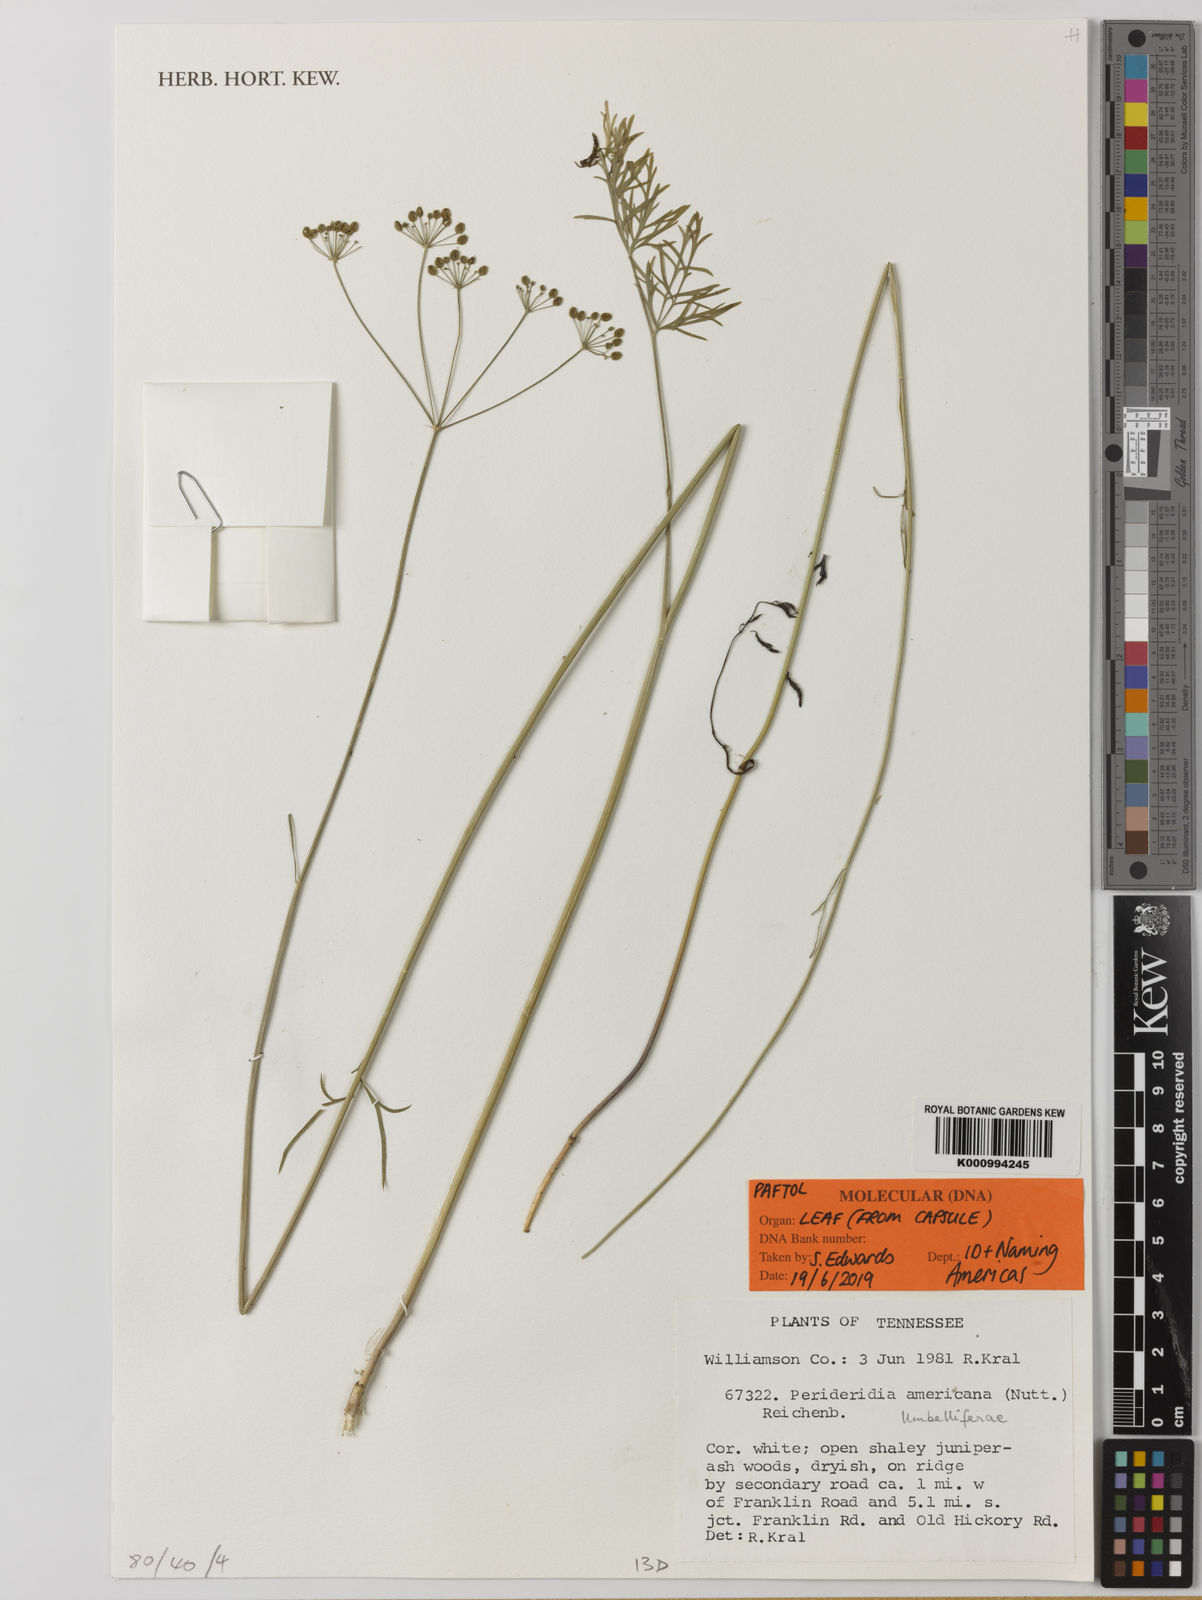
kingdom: Plantae
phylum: Tracheophyta
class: Magnoliopsida
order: Apiales
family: Apiaceae
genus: Perideridia
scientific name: Perideridia
